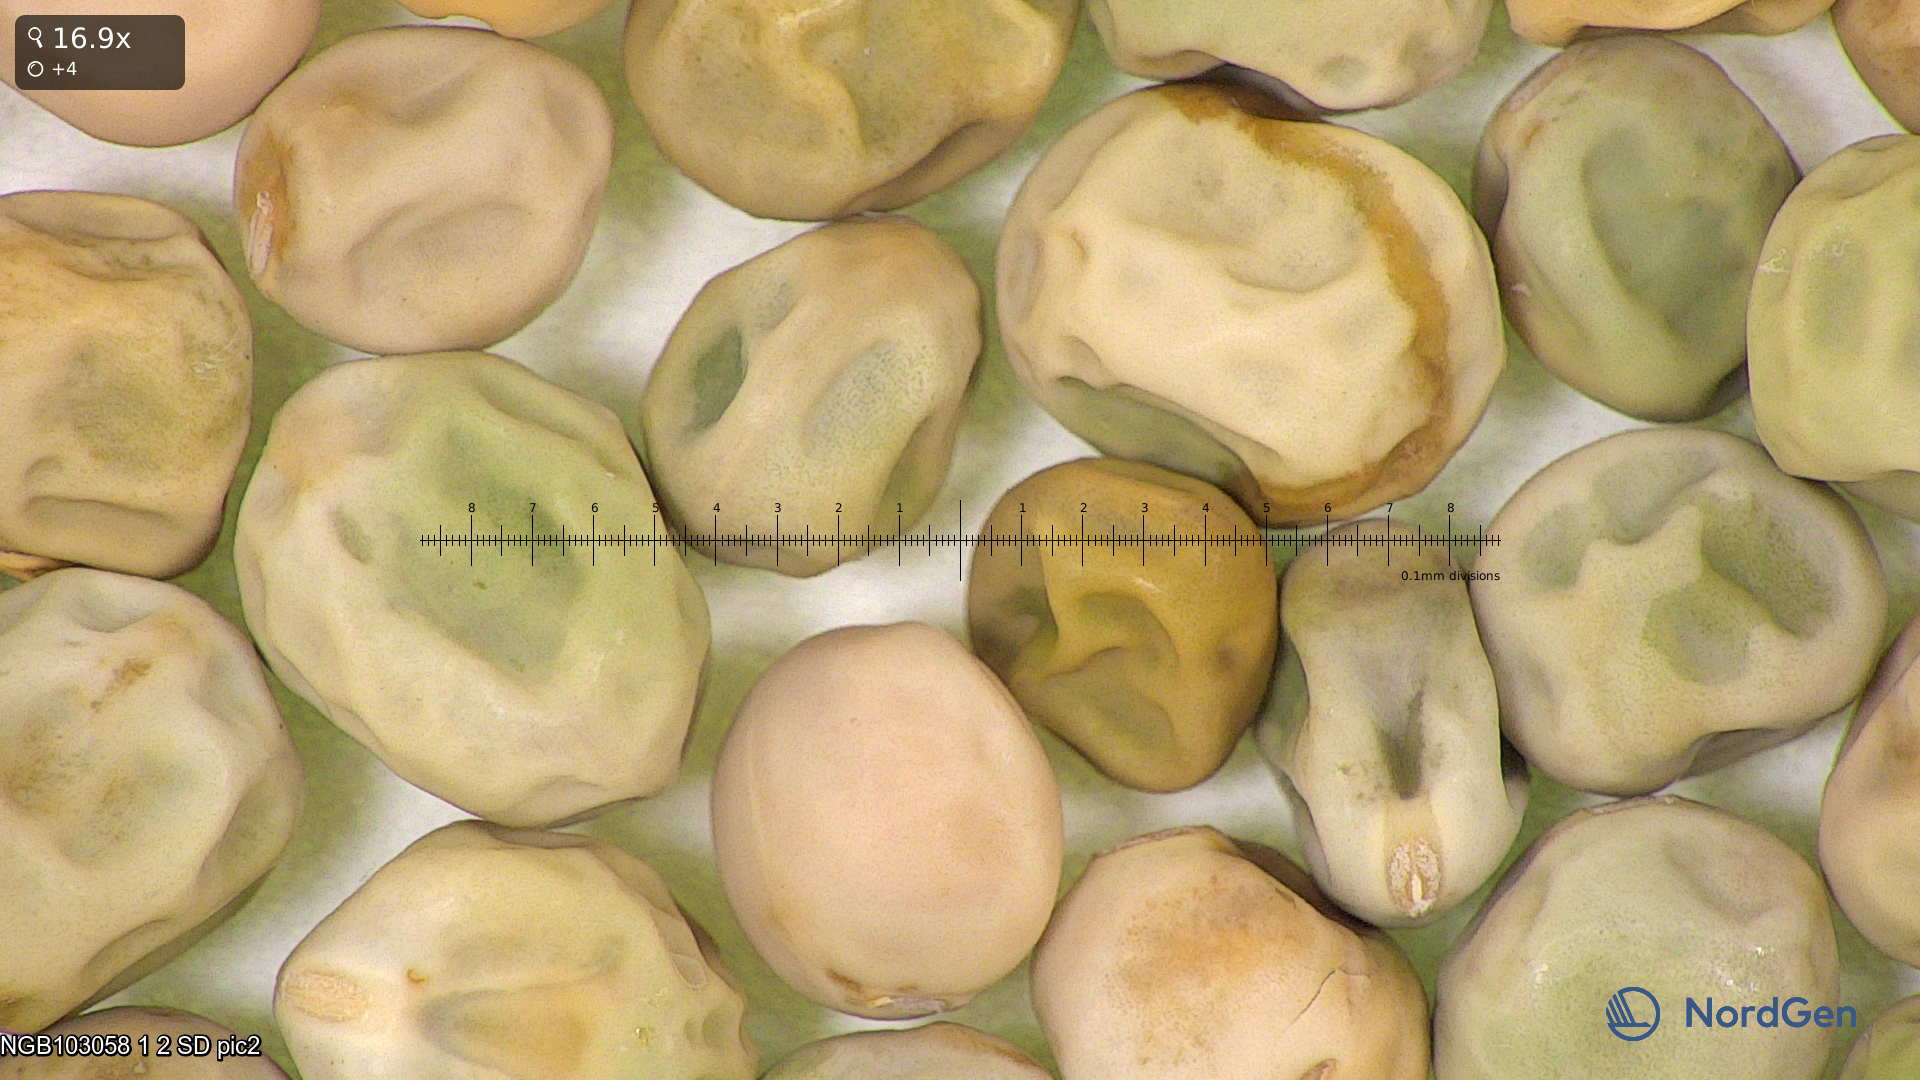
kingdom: Plantae
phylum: Tracheophyta
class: Magnoliopsida
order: Fabales
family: Fabaceae
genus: Lathyrus
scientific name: Lathyrus oleraceus
